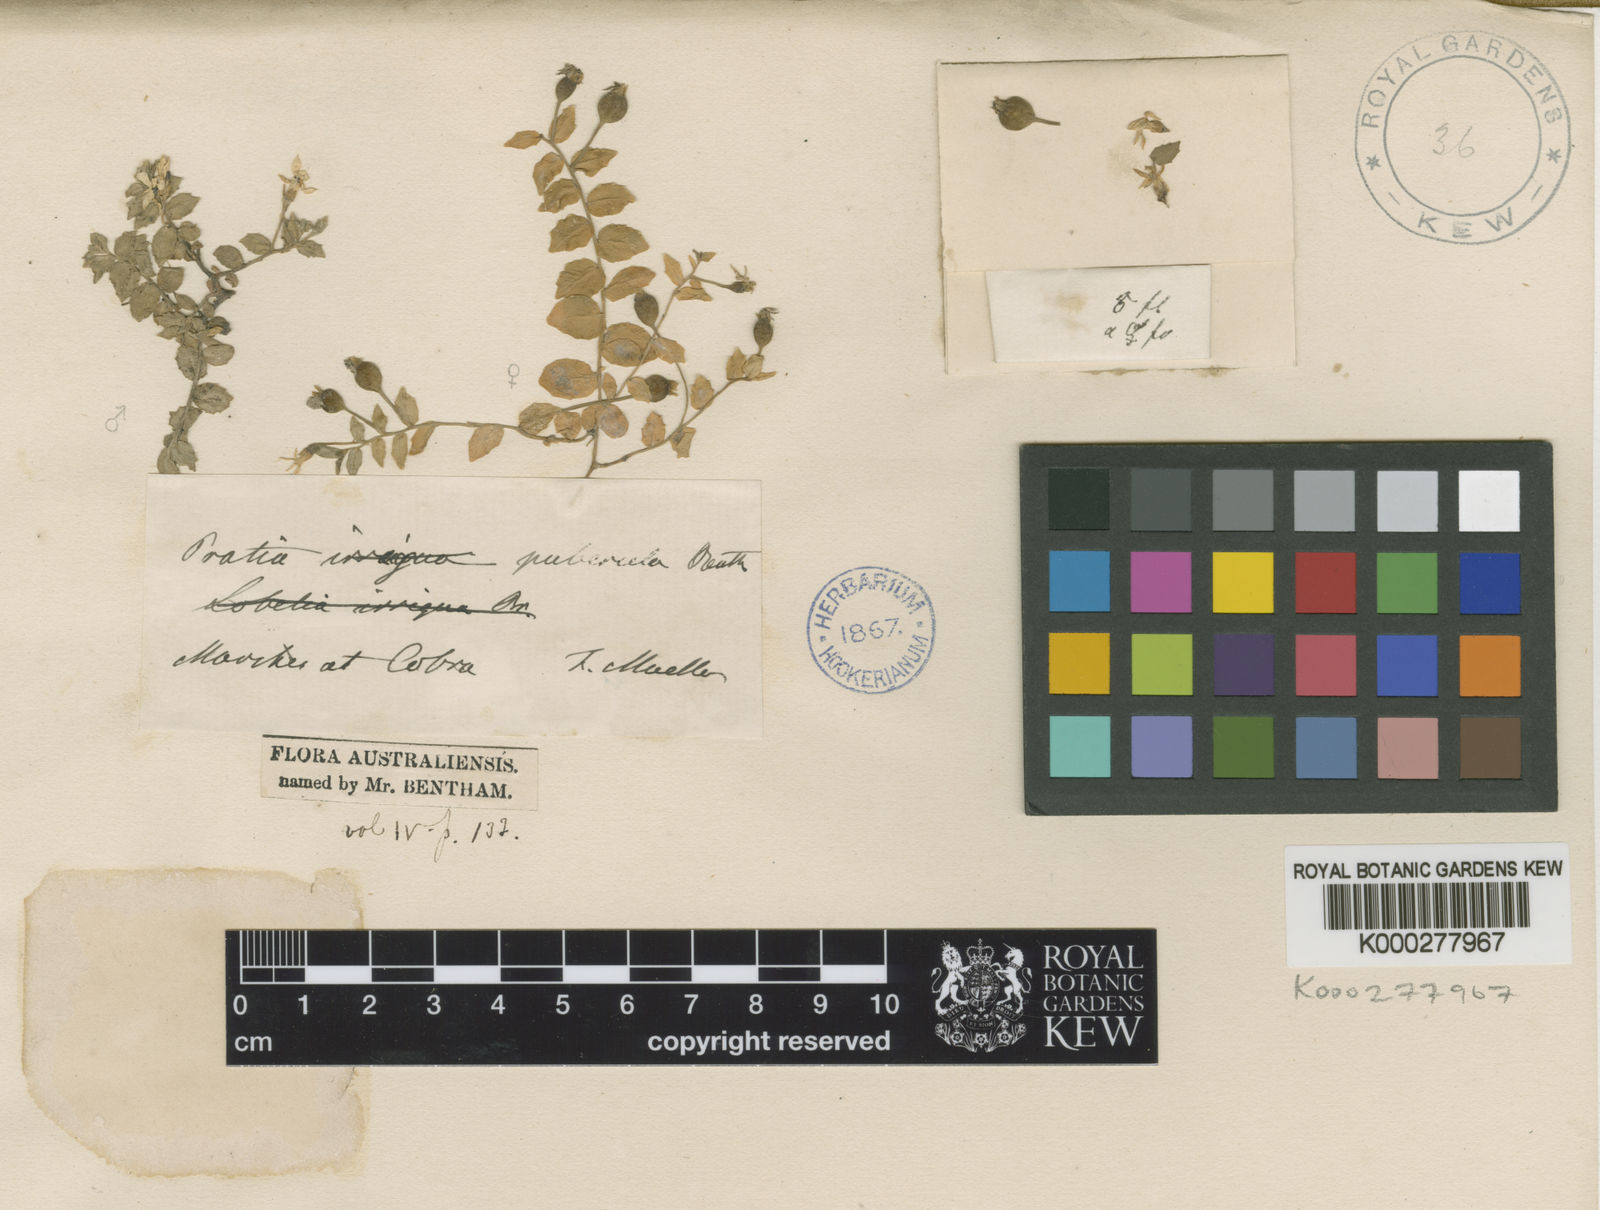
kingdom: Plantae
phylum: Tracheophyta
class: Magnoliopsida
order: Asterales
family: Campanulaceae
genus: Lobelia
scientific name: Lobelia benthamii
